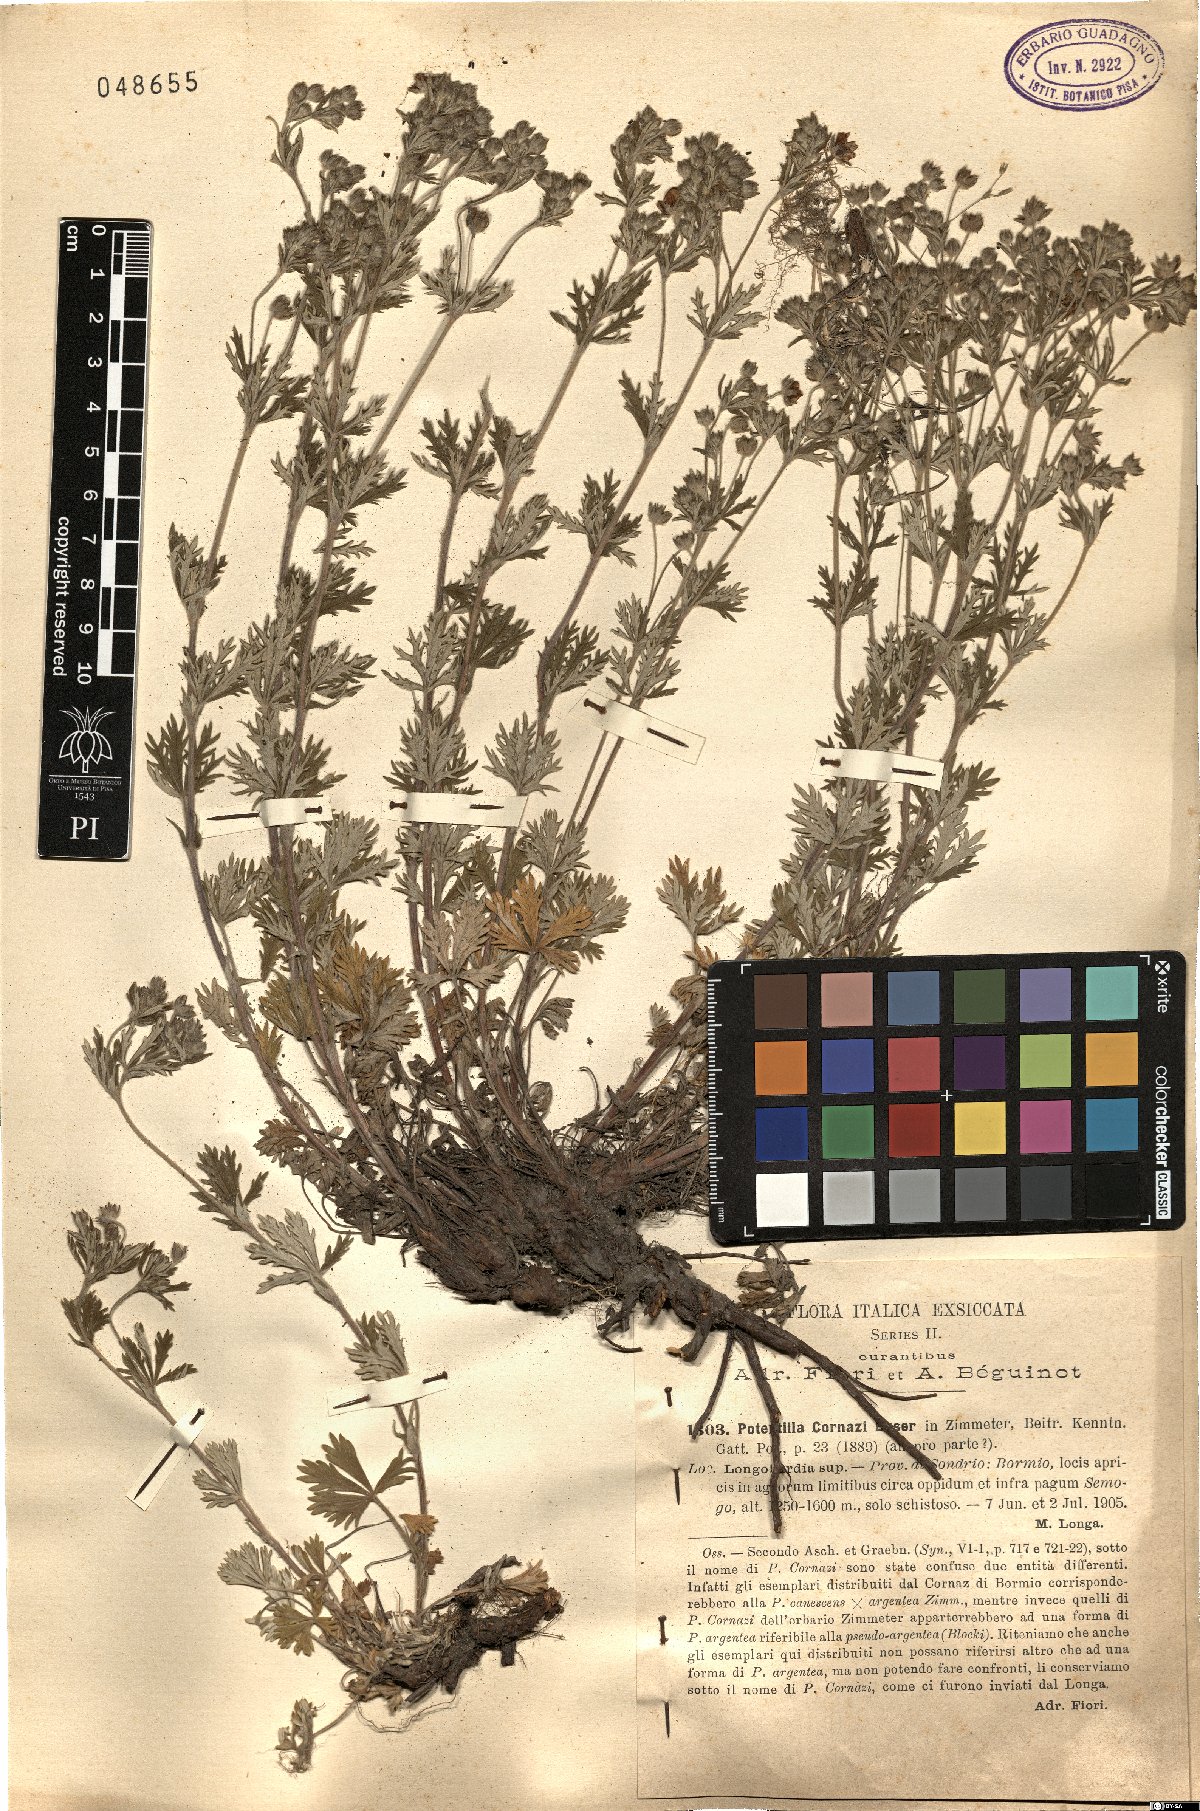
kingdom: Plantae
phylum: Tracheophyta
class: Magnoliopsida
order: Rosales
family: Rosaceae
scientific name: Rosaceae
